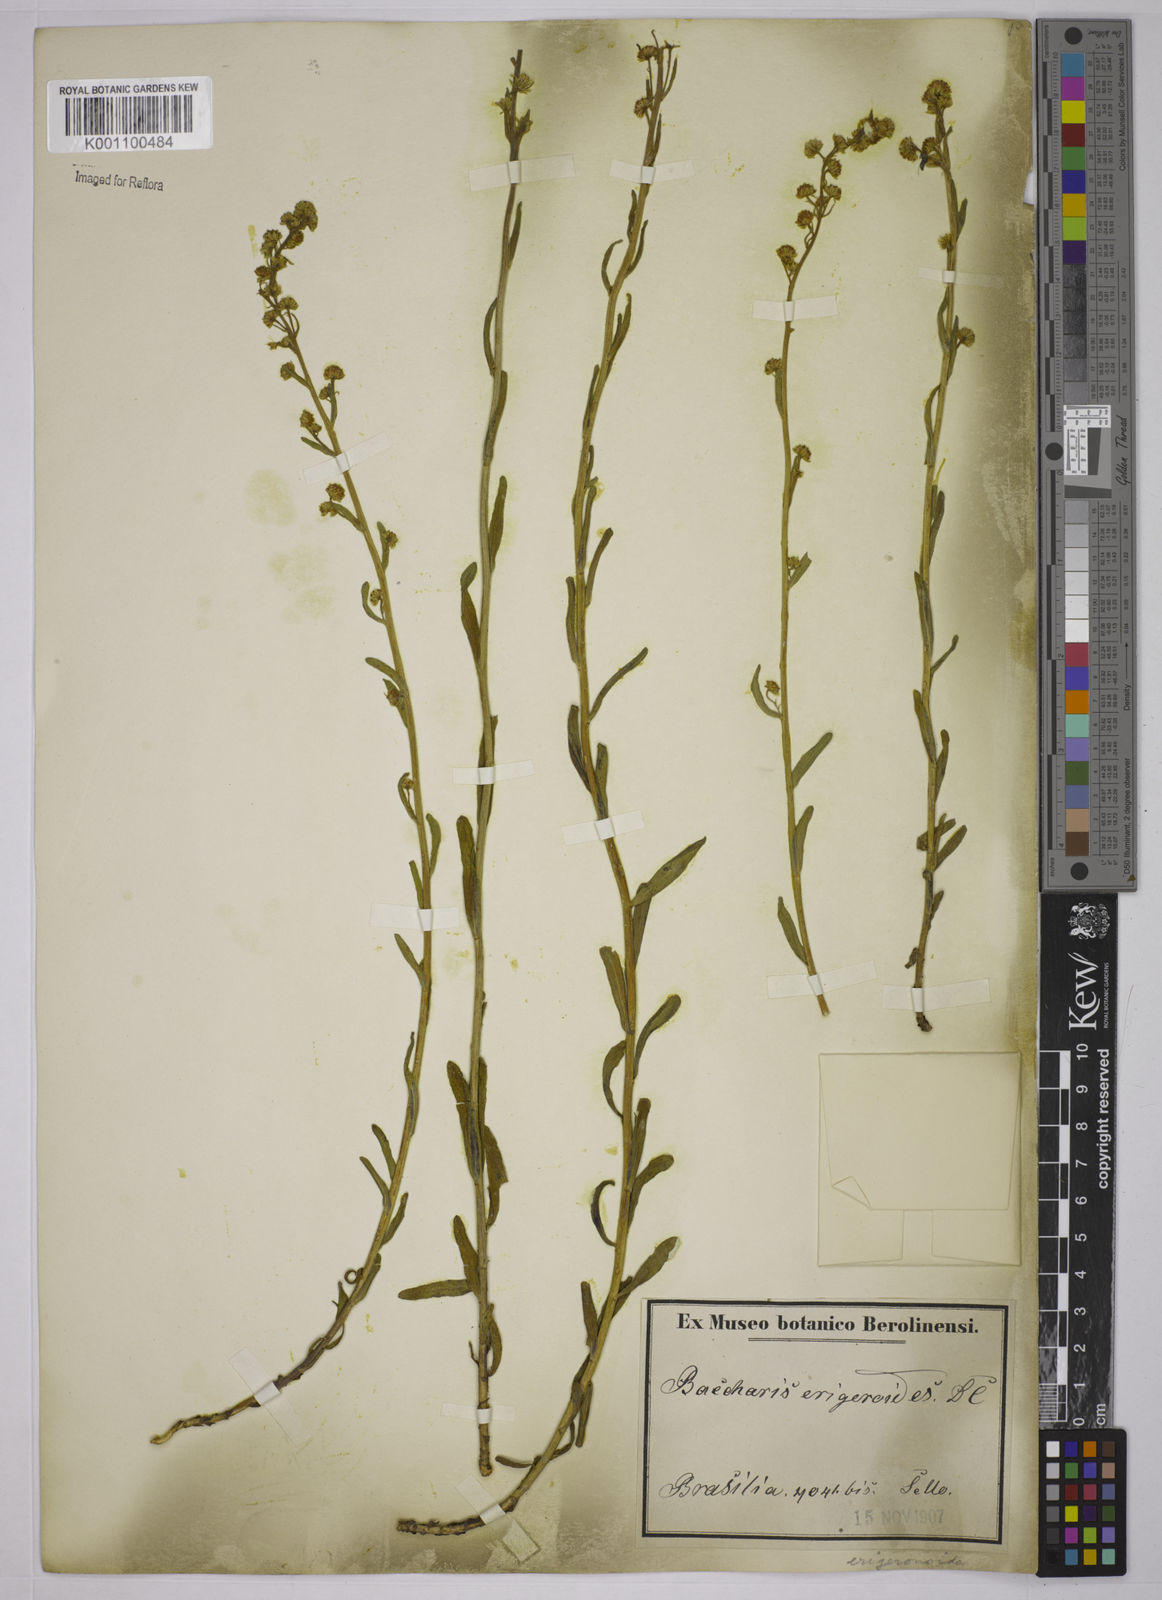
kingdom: Plantae
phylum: Tracheophyta
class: Magnoliopsida
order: Asterales
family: Asteraceae
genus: Baccharis
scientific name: Baccharis erigeroides
